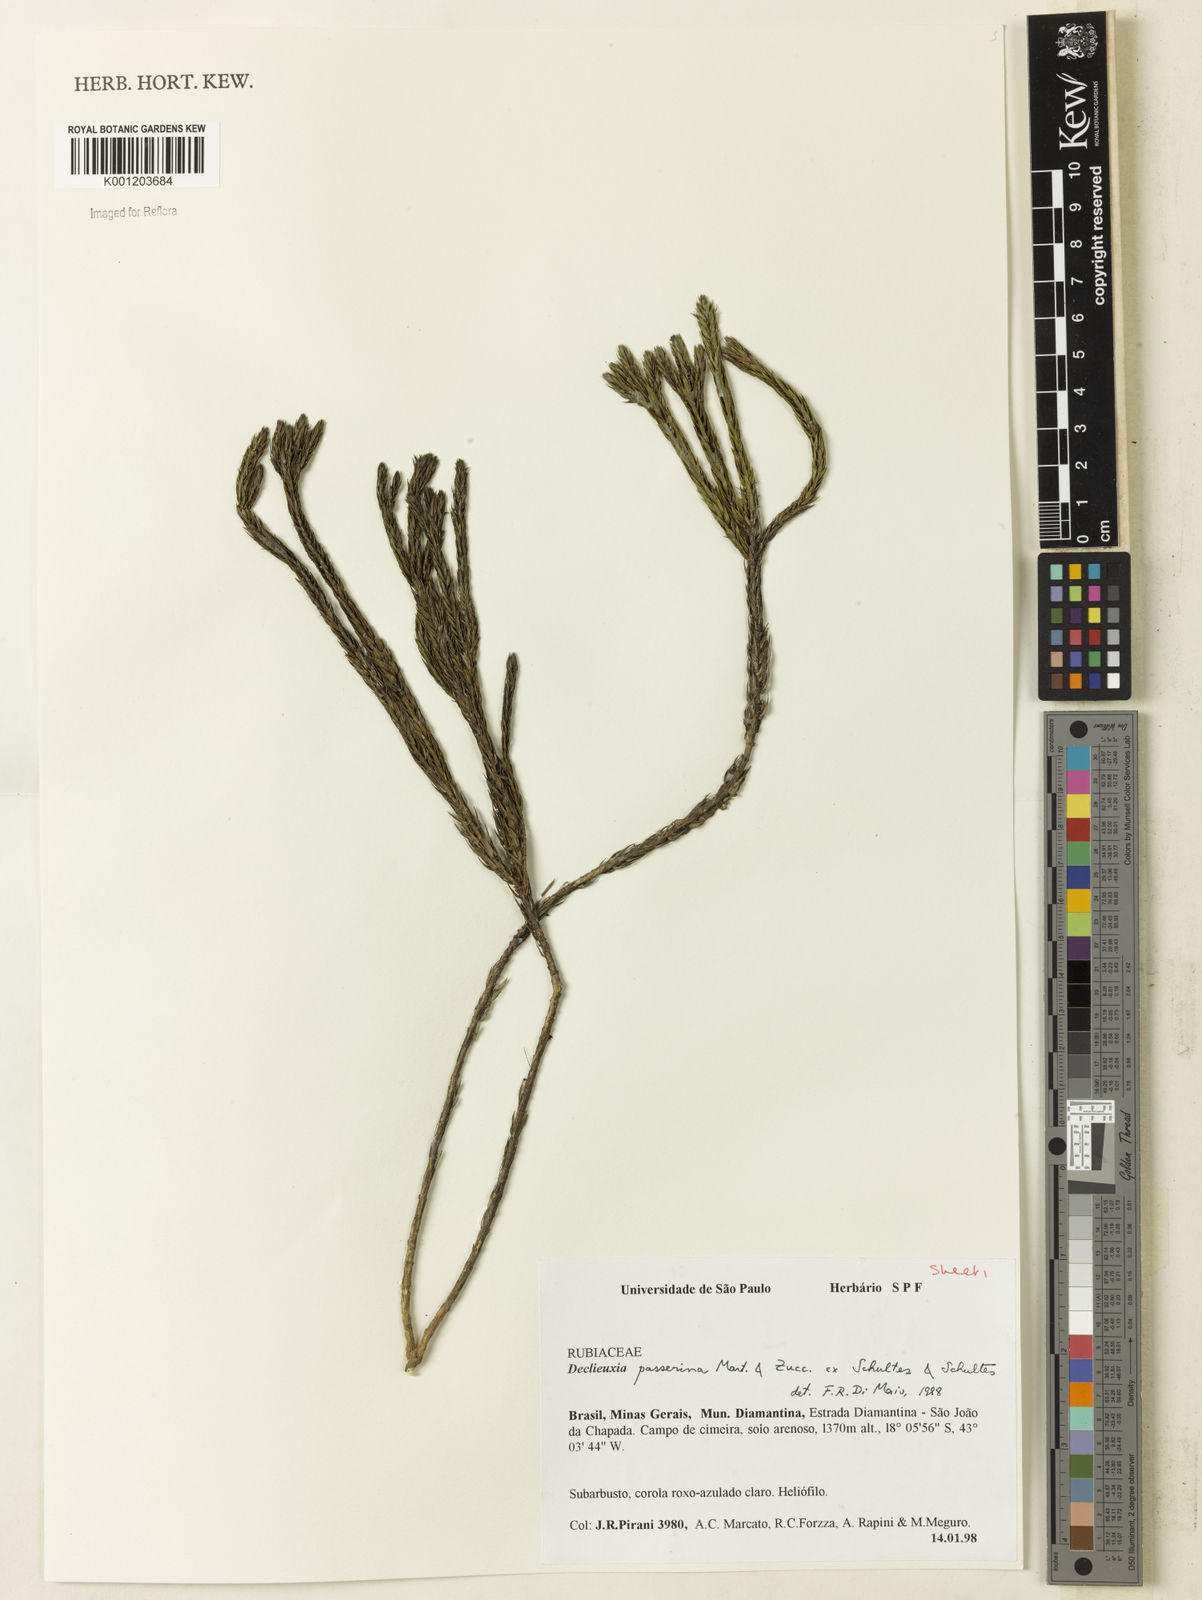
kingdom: Plantae
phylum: Tracheophyta
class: Magnoliopsida
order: Gentianales
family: Rubiaceae
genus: Declieuxia
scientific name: Declieuxia
